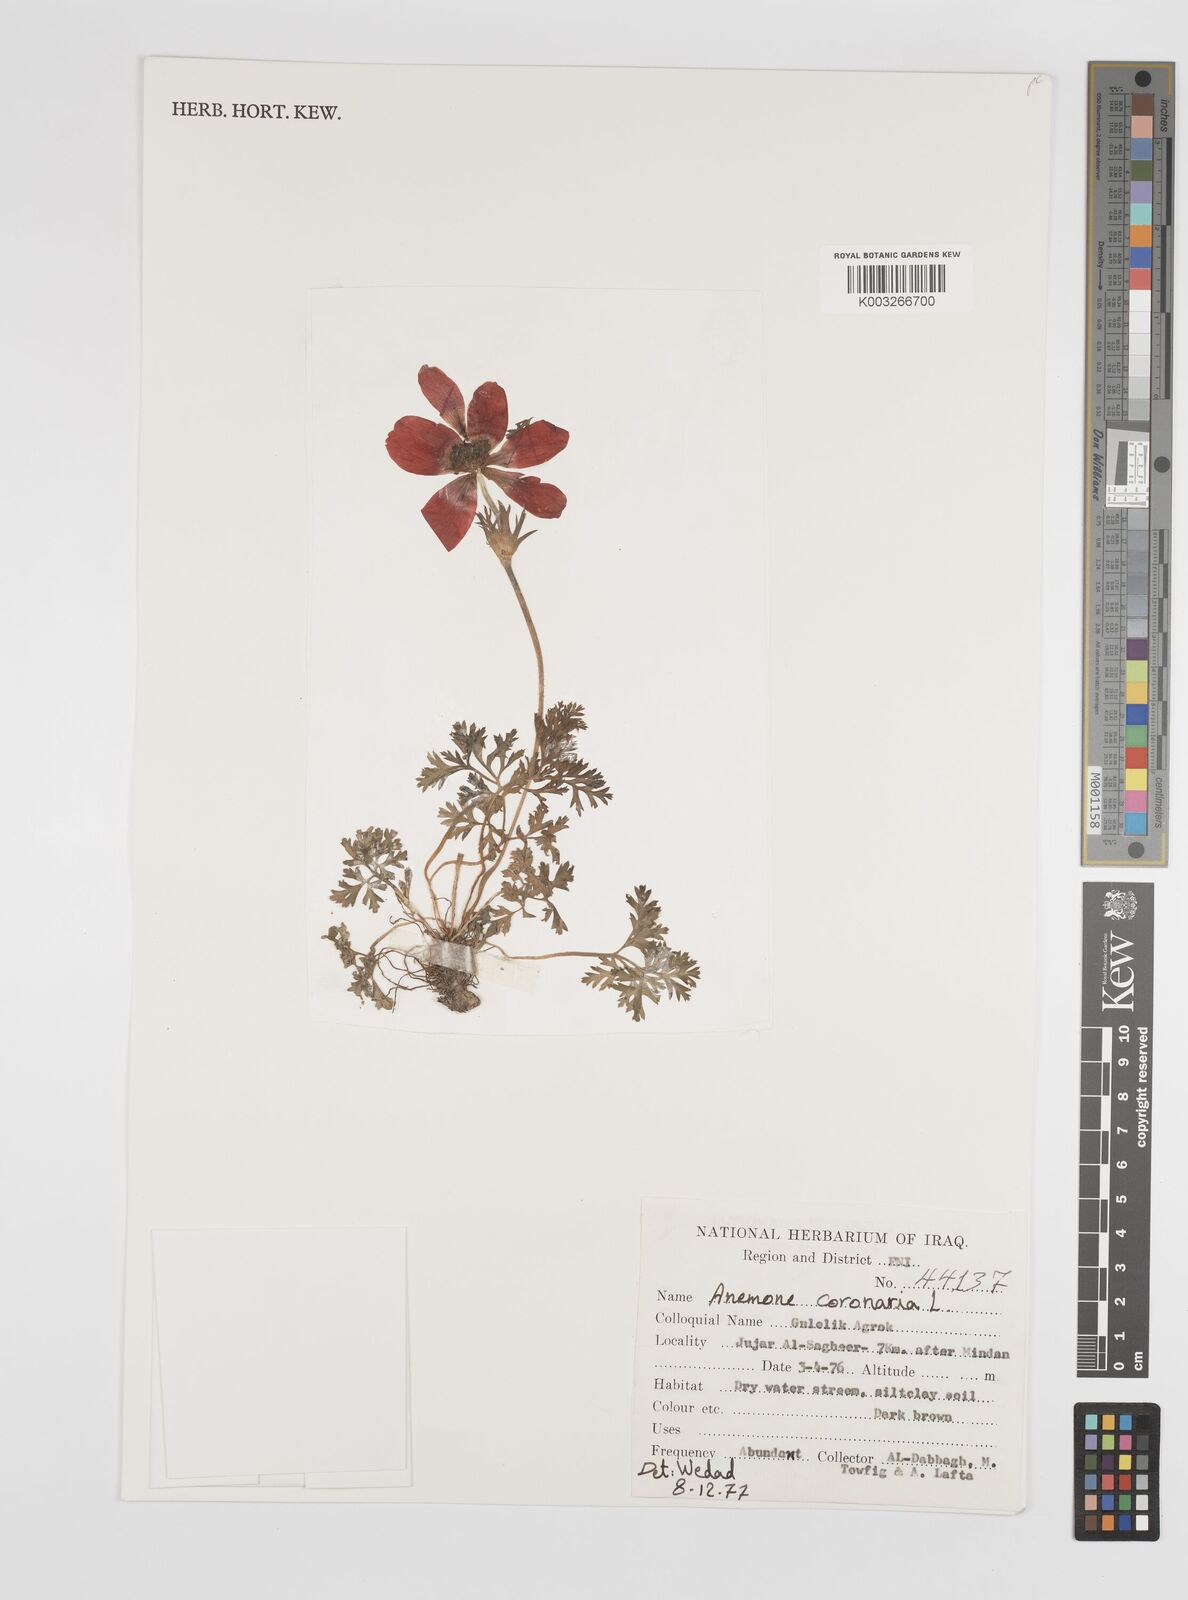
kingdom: Plantae
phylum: Tracheophyta
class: Magnoliopsida
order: Ranunculales
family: Ranunculaceae
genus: Anemone
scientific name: Anemone coronaria
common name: Poppy anemone
